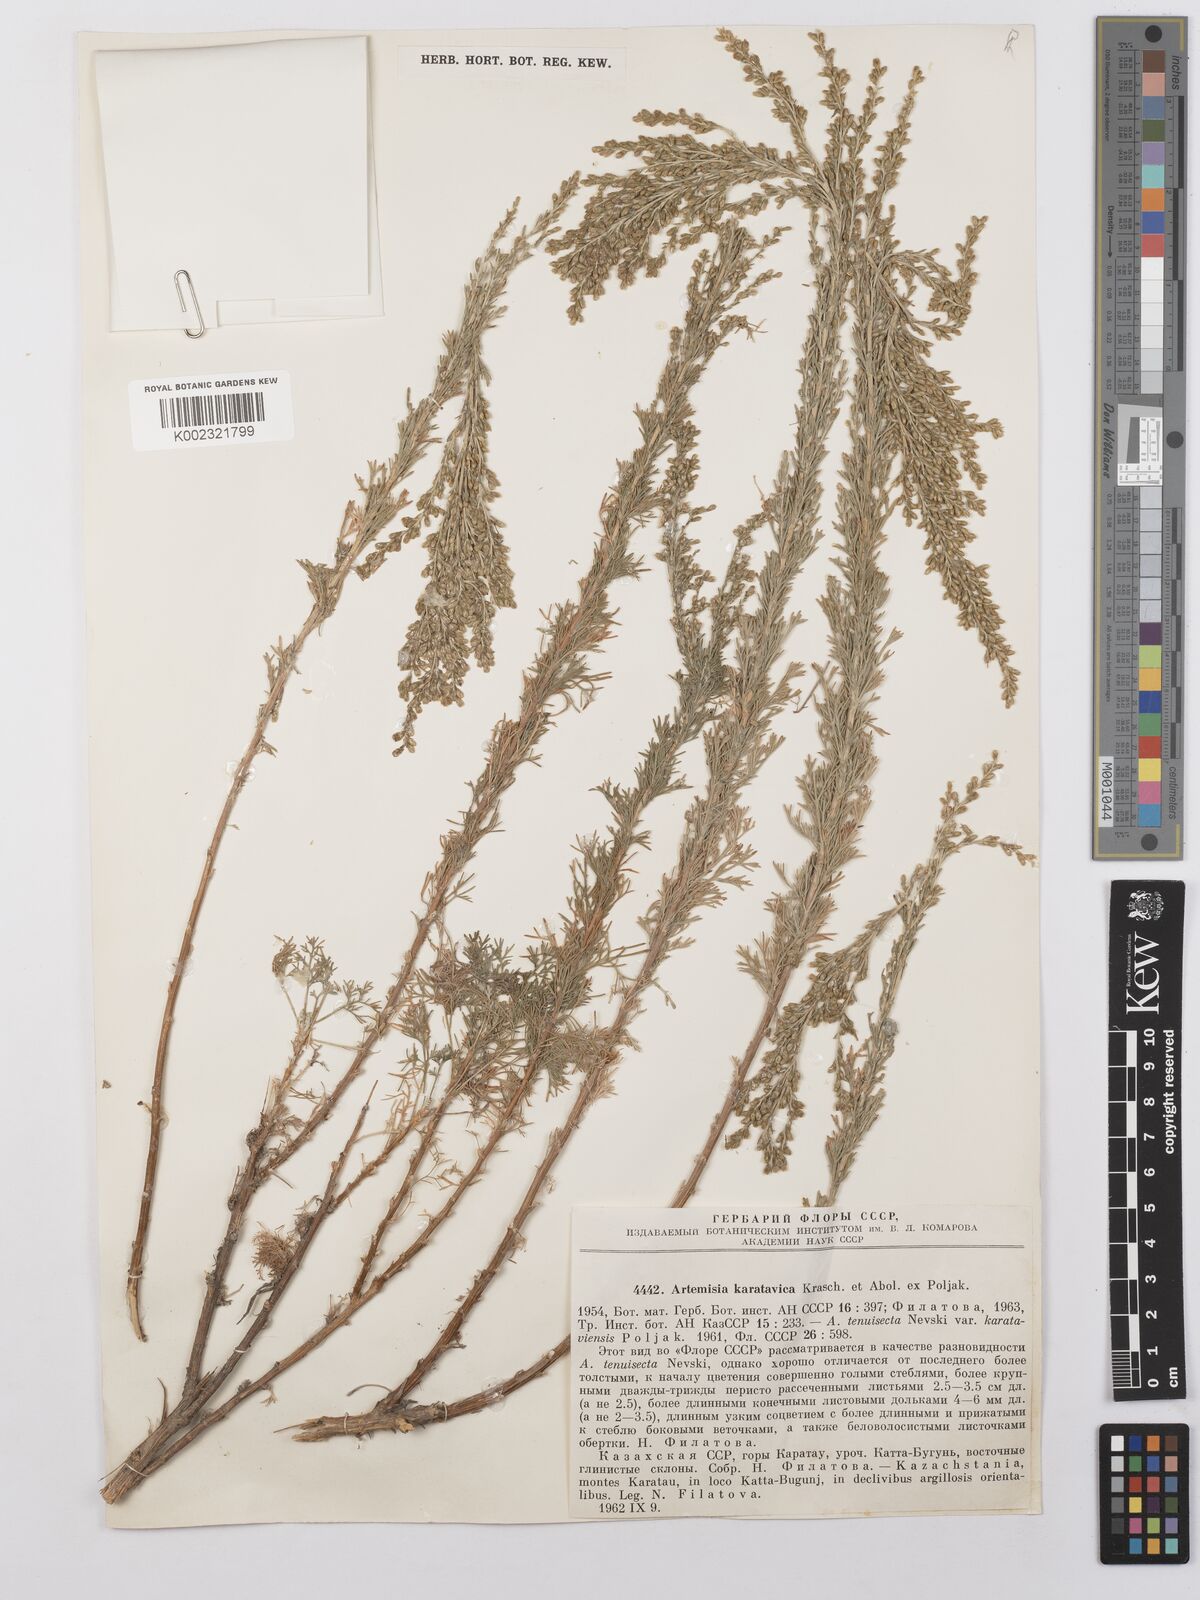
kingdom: Plantae
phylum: Tracheophyta
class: Magnoliopsida
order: Asterales
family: Asteraceae
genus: Artemisia
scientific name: Artemisia karatavica
